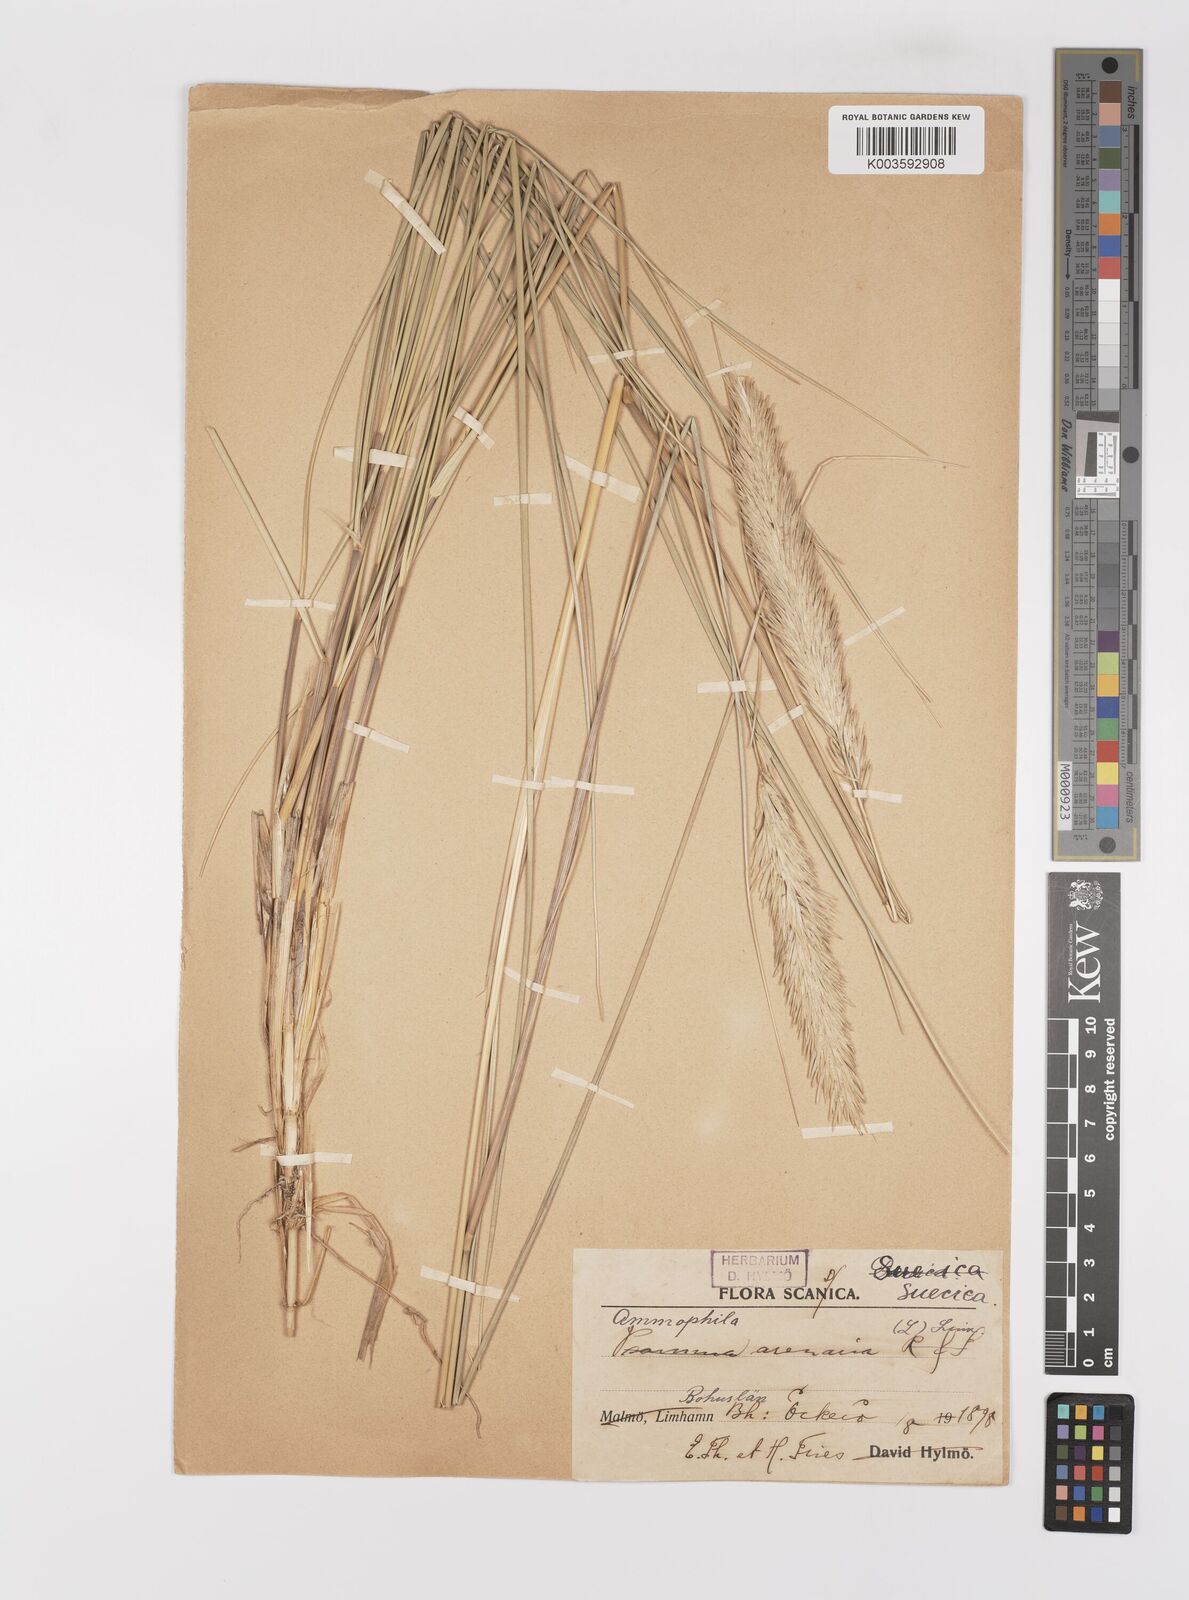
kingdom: Plantae
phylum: Tracheophyta
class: Liliopsida
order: Poales
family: Poaceae
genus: Calamagrostis
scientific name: Calamagrostis arenaria
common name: European beachgrass
